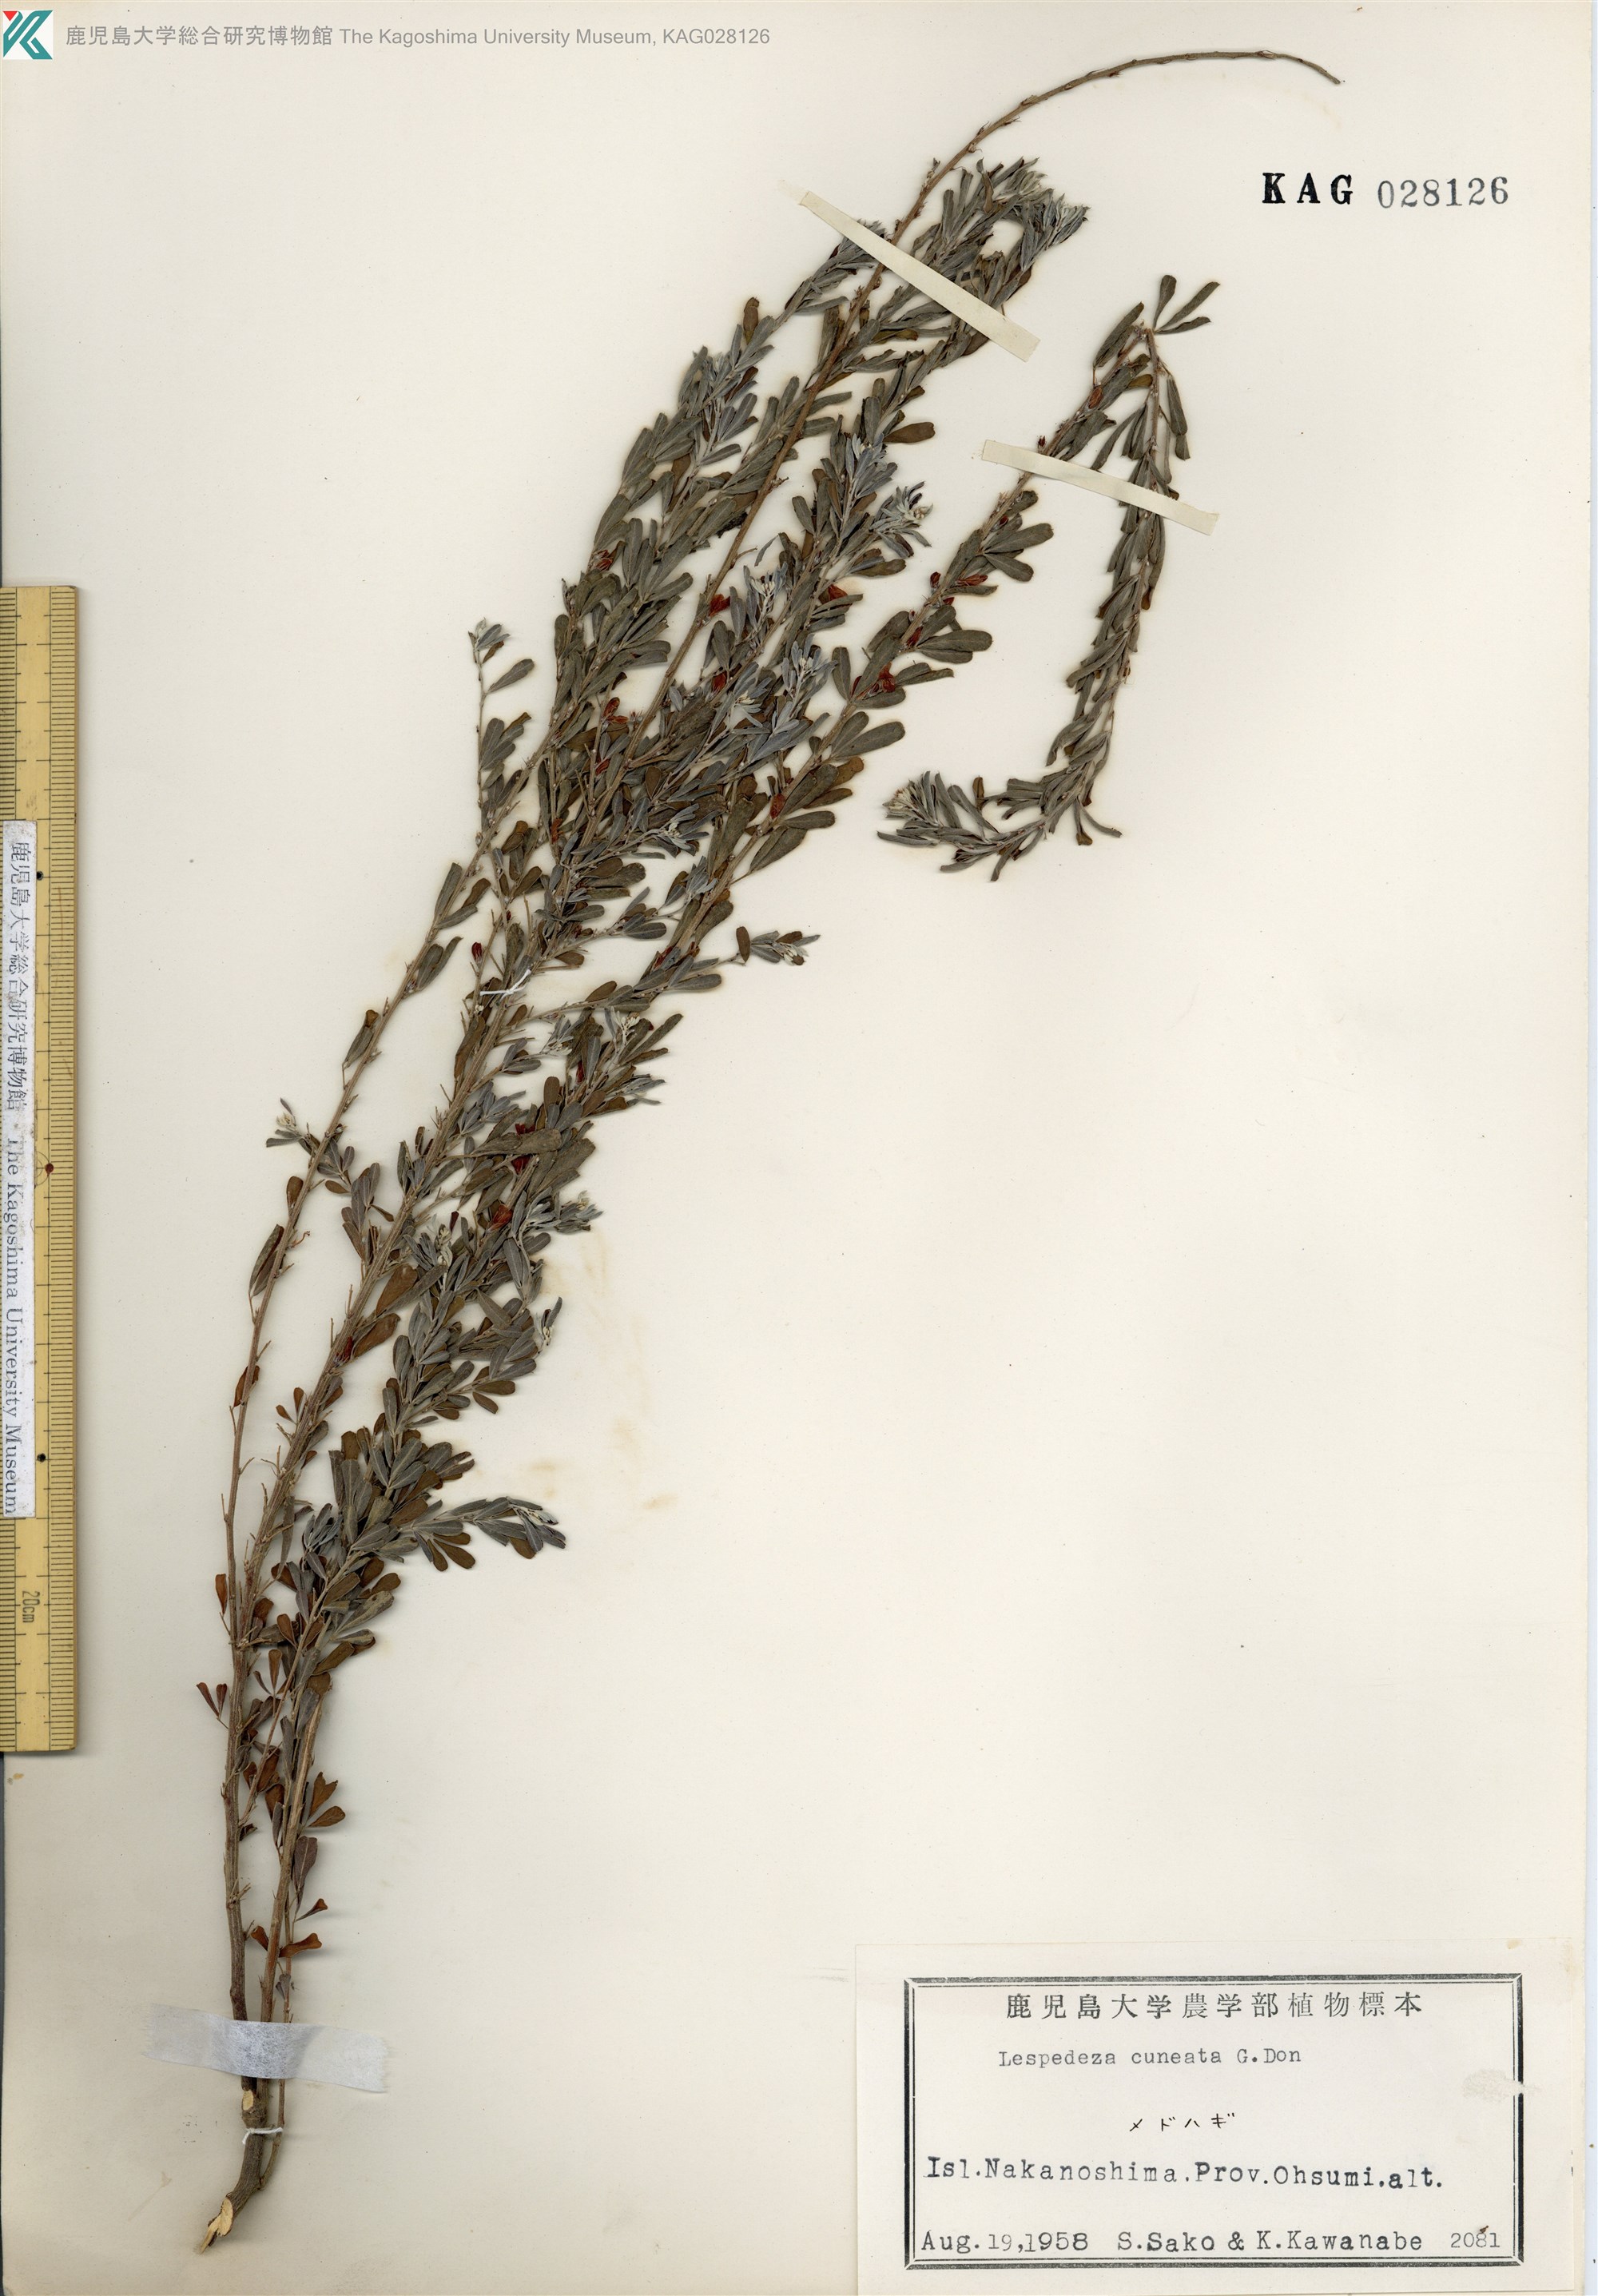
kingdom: Plantae
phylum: Tracheophyta
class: Magnoliopsida
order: Fabales
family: Fabaceae
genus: Lespedeza
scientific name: Lespedeza cuneata
